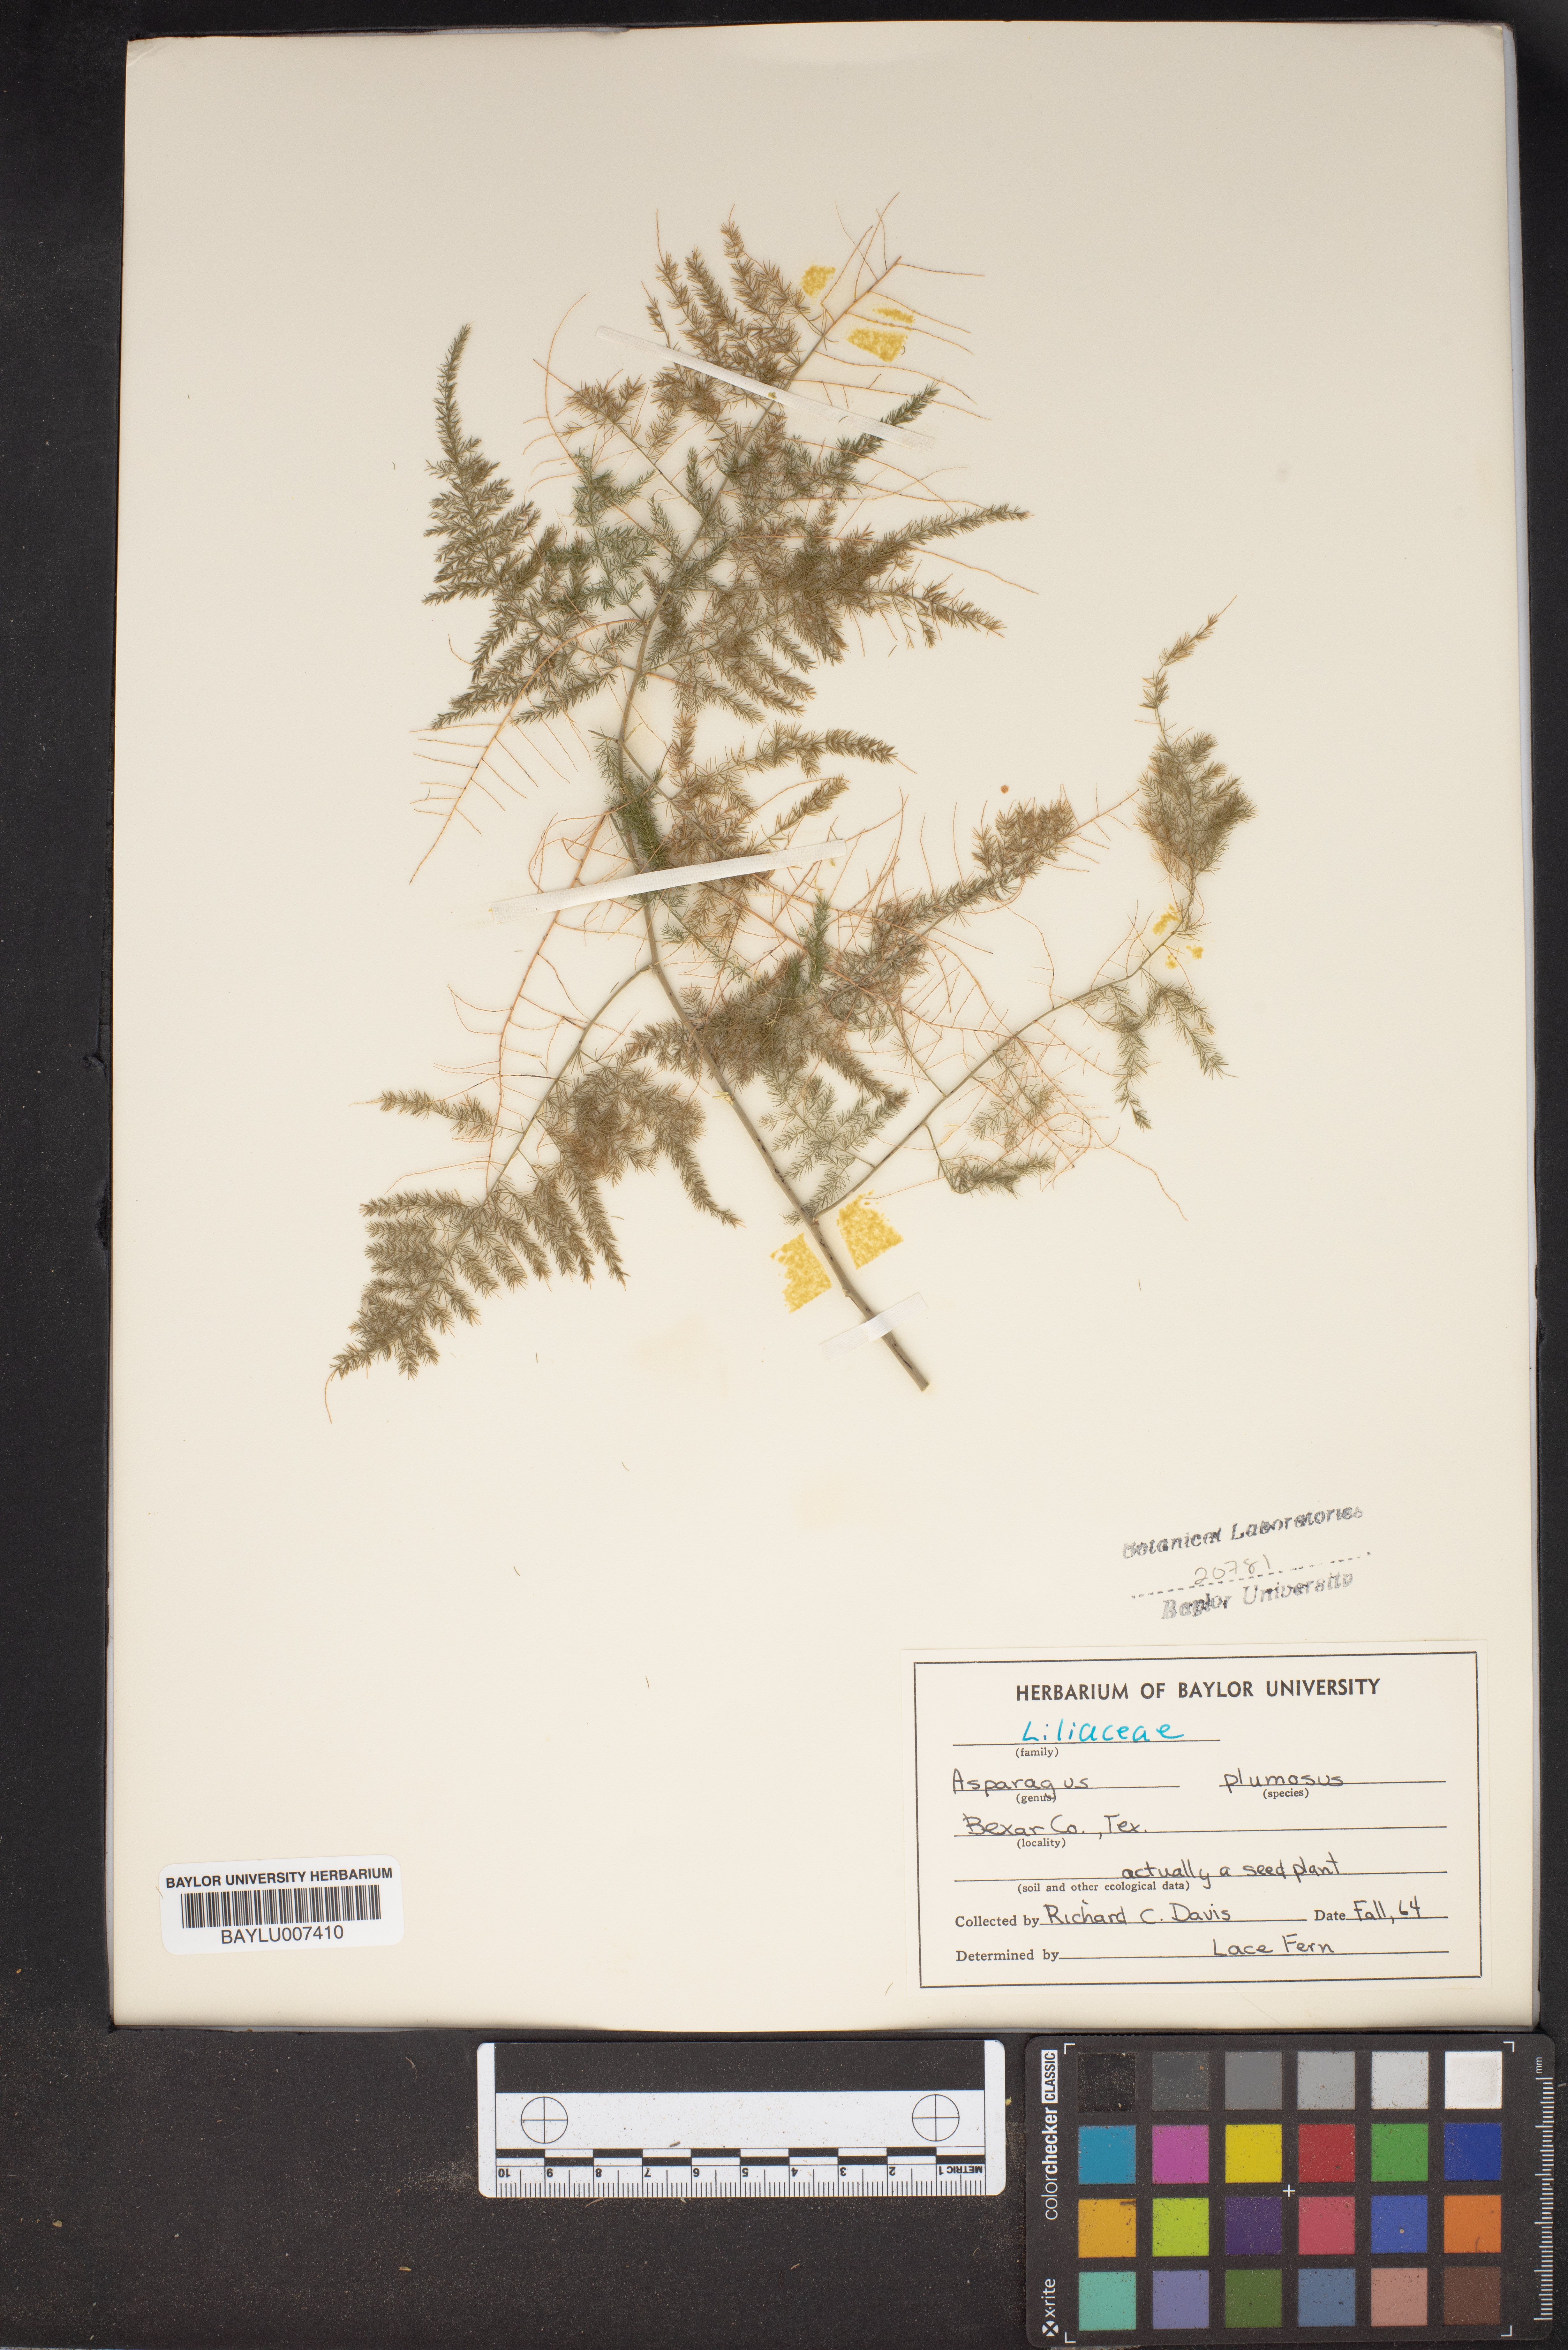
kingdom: Plantae
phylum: Tracheophyta
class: Liliopsida
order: Asparagales
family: Asparagaceae
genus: Asparagus
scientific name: Asparagus setaceus
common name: Common asparagus fern
